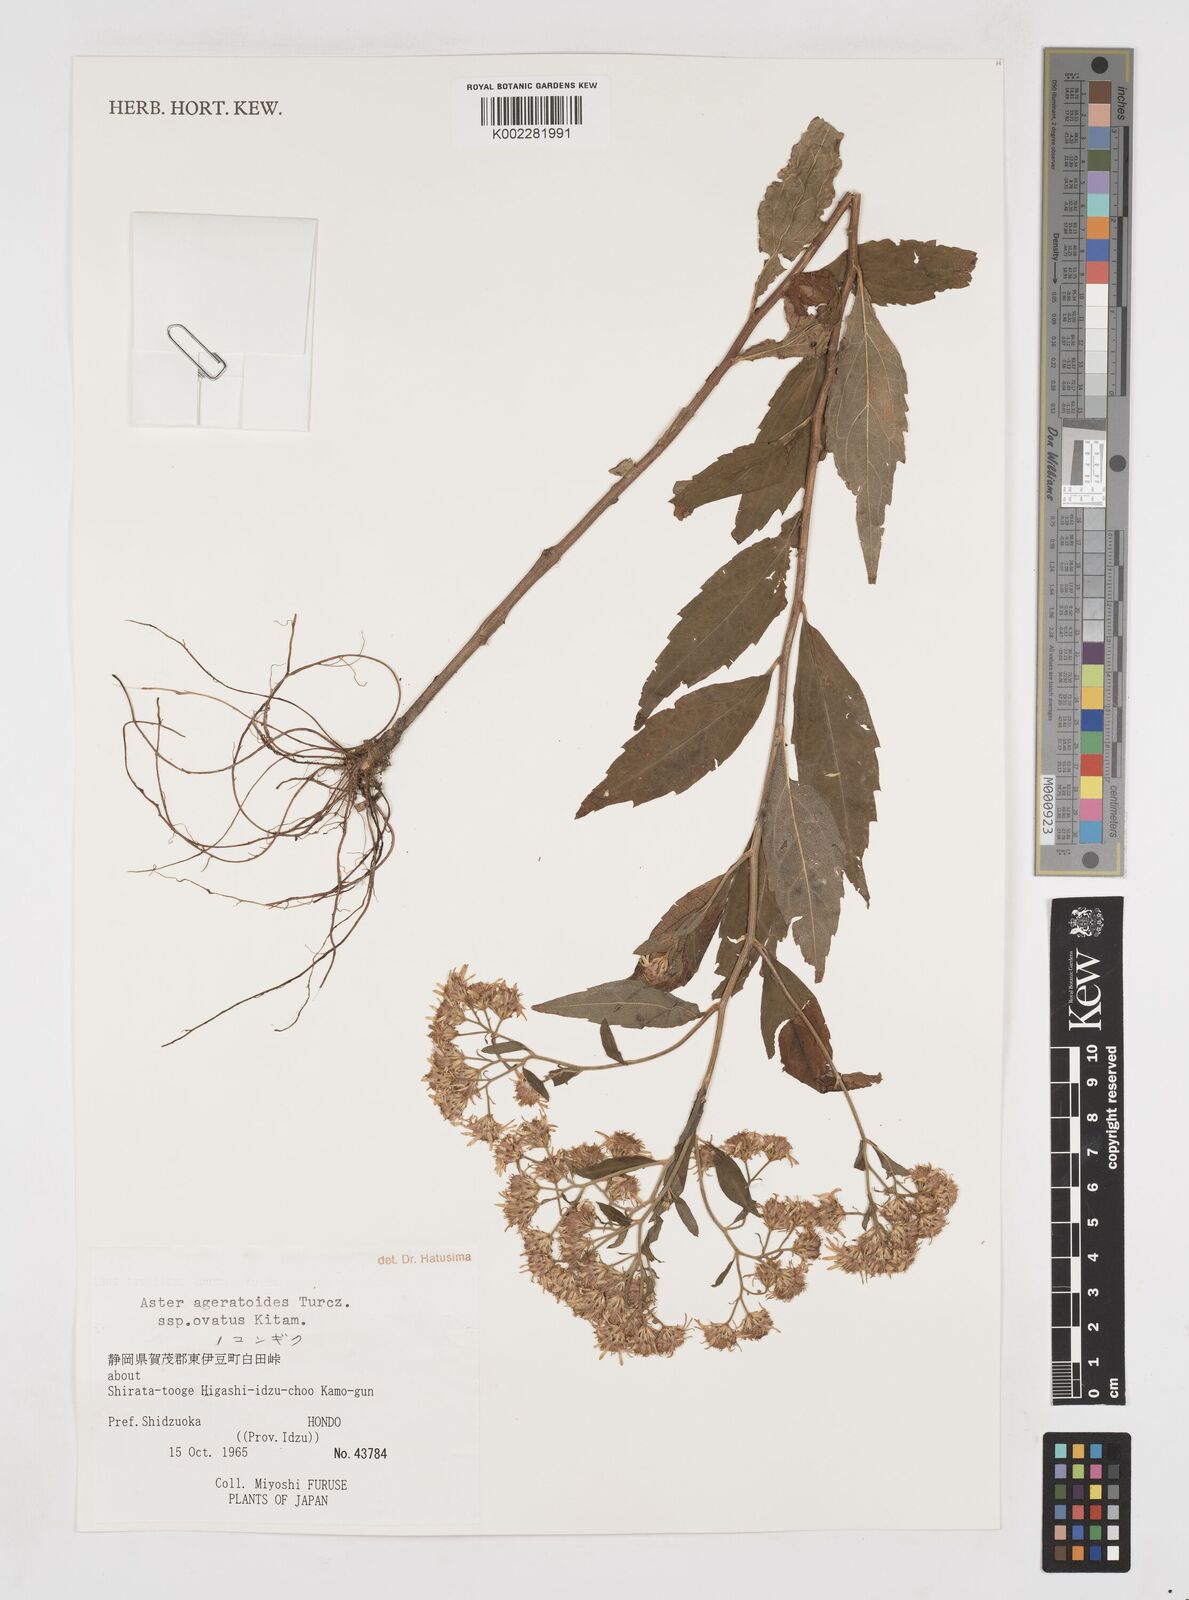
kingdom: Plantae
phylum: Tracheophyta
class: Magnoliopsida
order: Asterales
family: Asteraceae
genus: Galatella
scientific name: Galatella sedifolia
